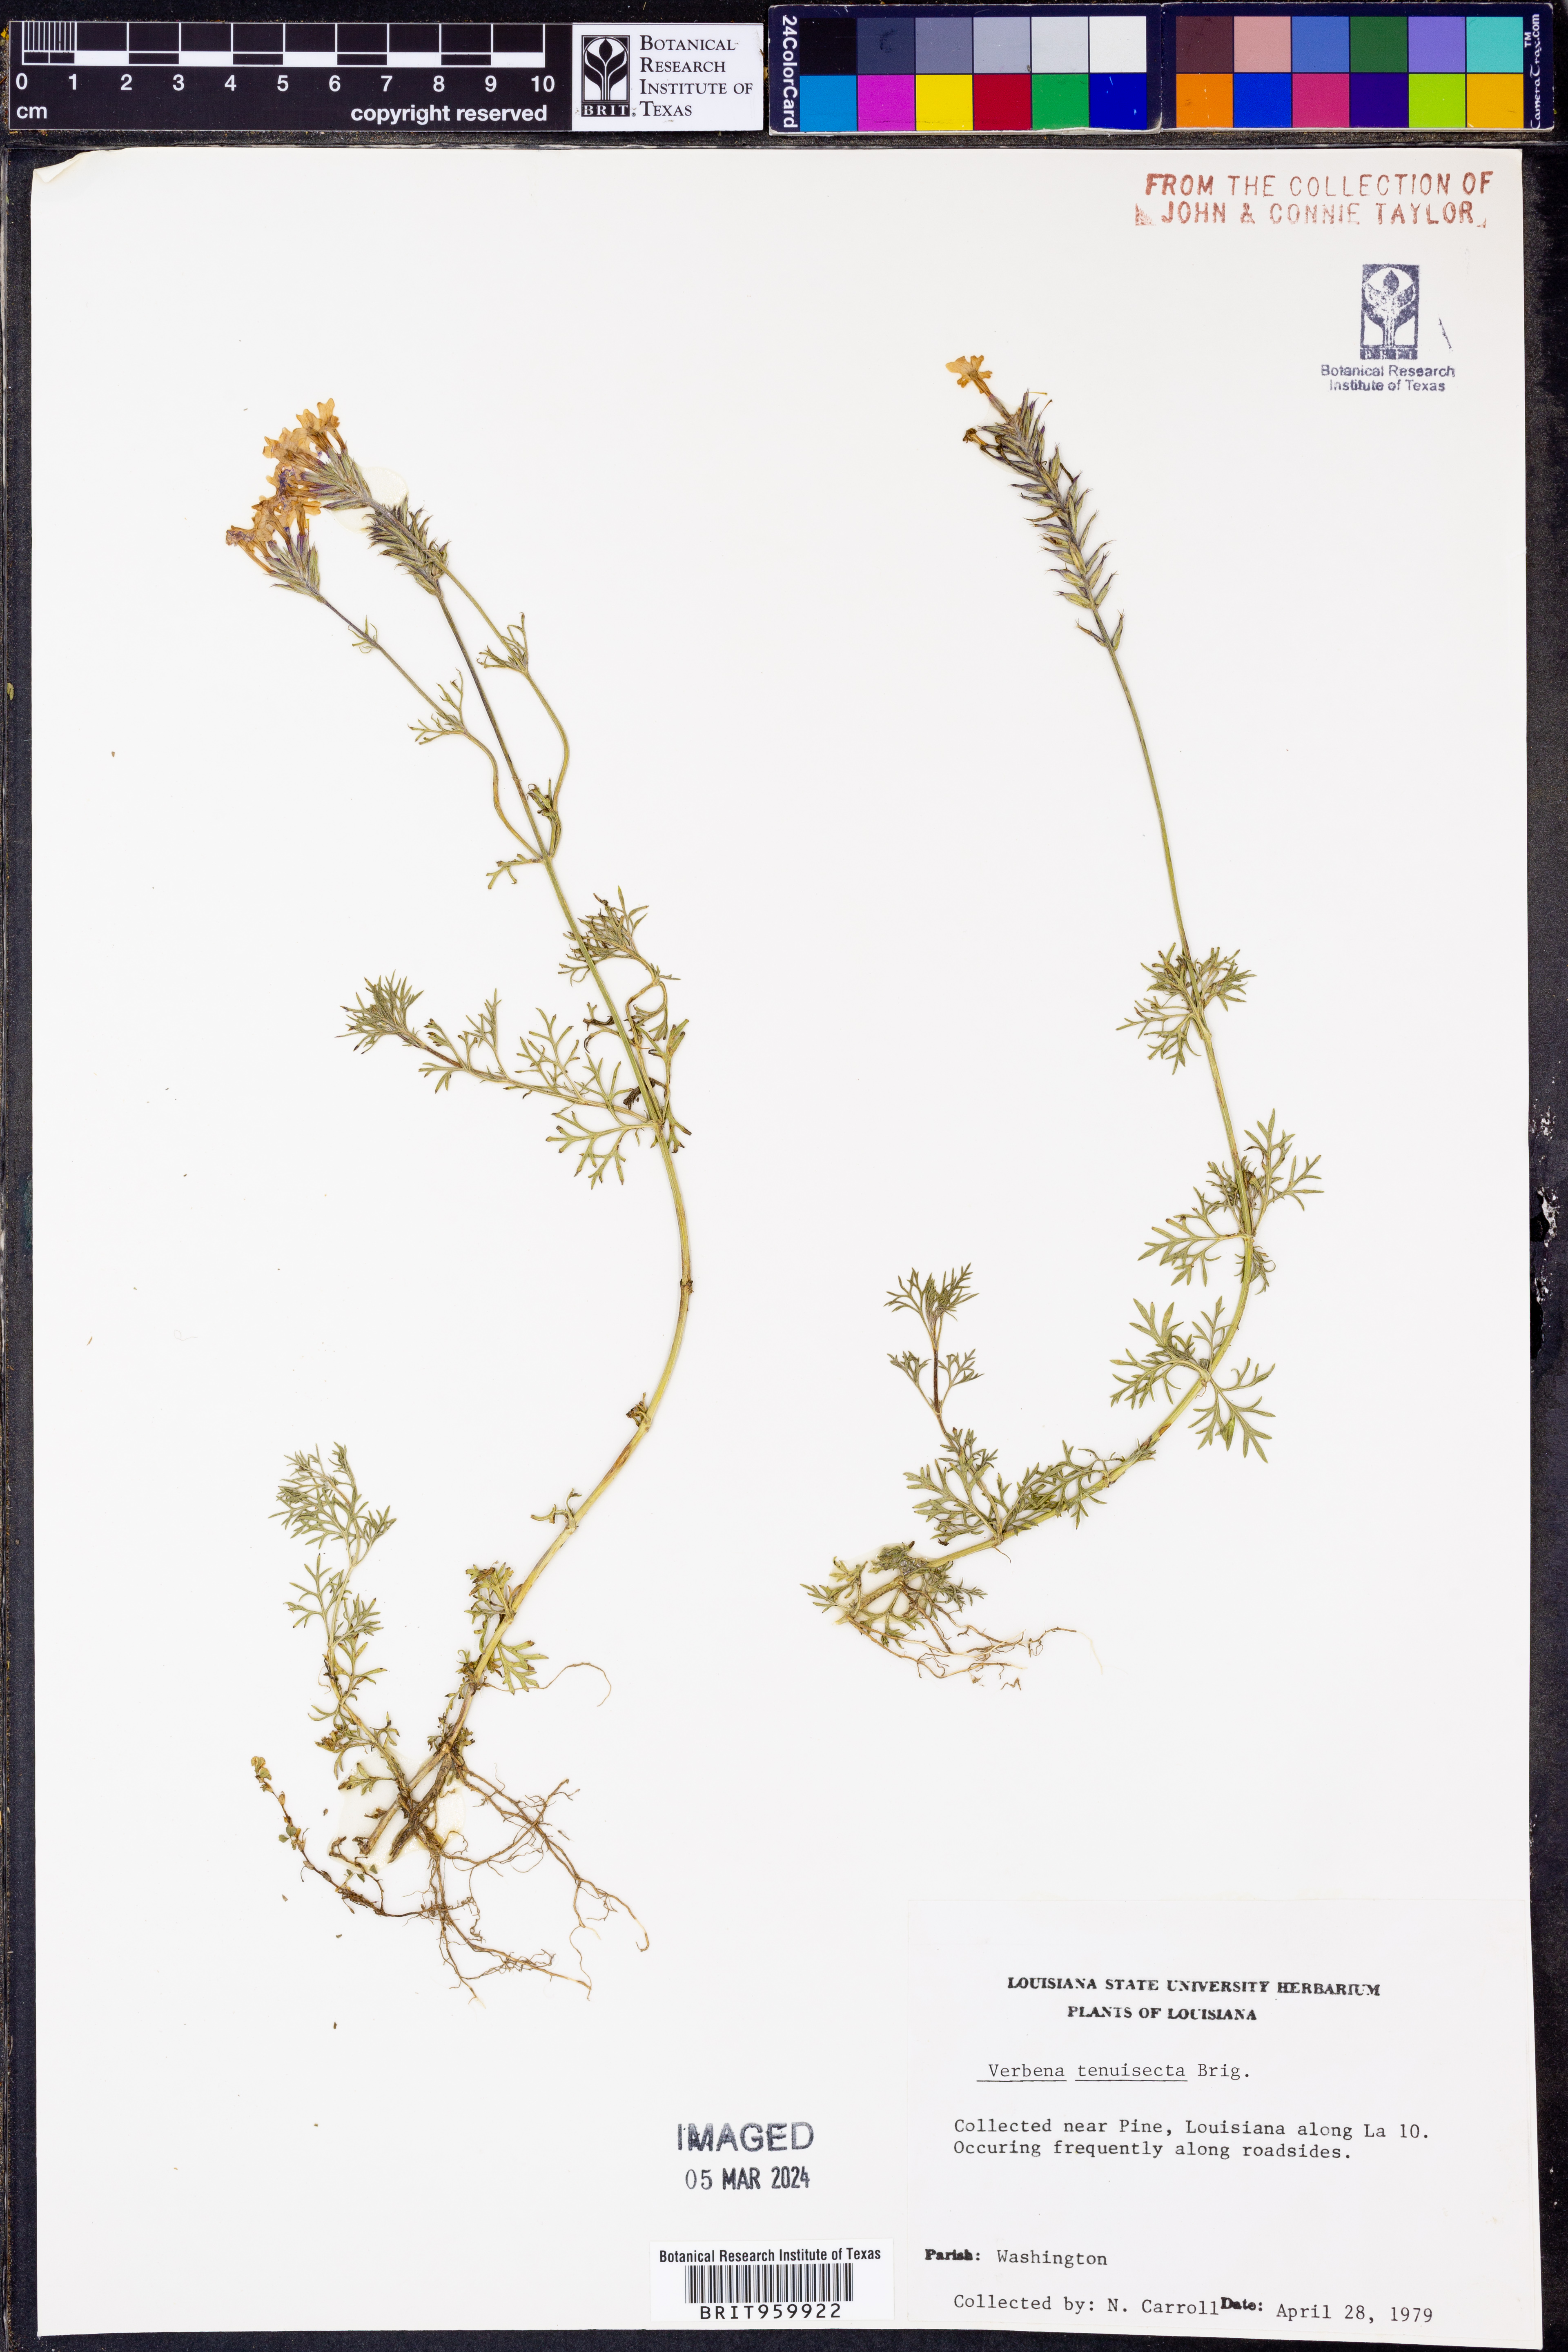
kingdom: Plantae
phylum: Tracheophyta
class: Magnoliopsida
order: Lamiales
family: Verbenaceae
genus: Verbena
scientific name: Verbena tenera
